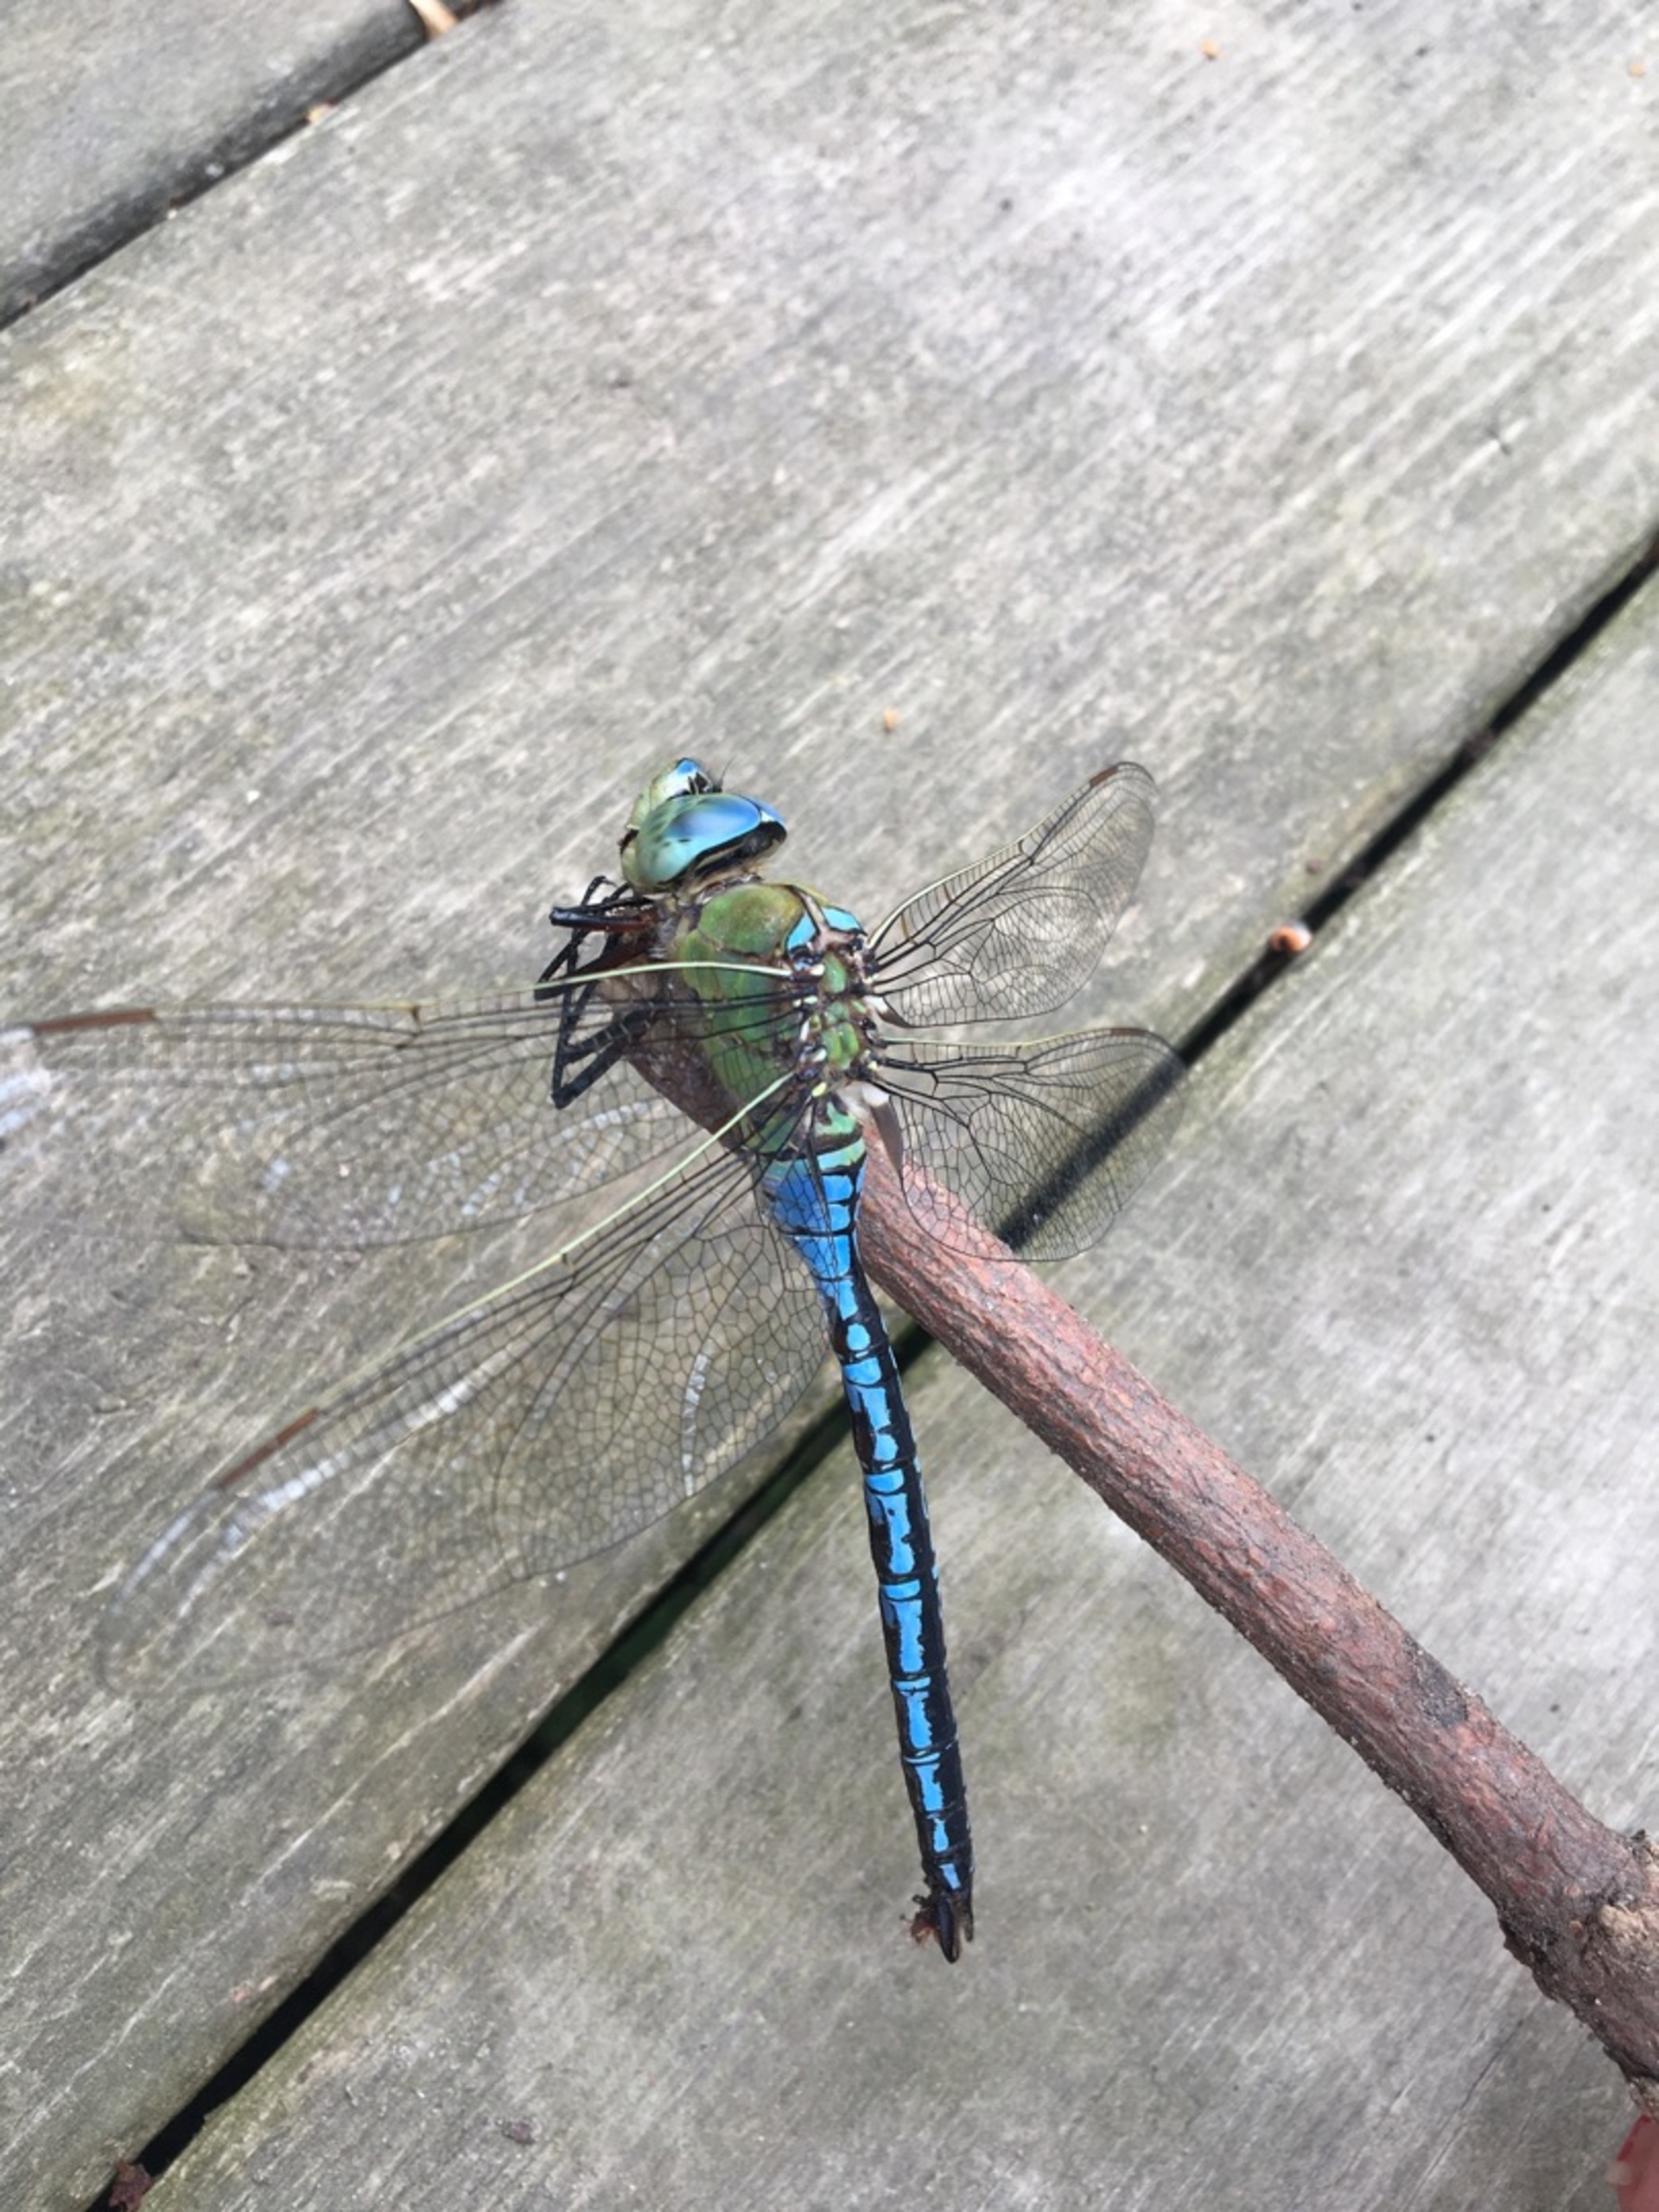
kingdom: Animalia
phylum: Arthropoda
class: Insecta
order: Odonata
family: Aeshnidae
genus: Anax
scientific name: Anax imperator
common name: Stor kejserguldsmed
